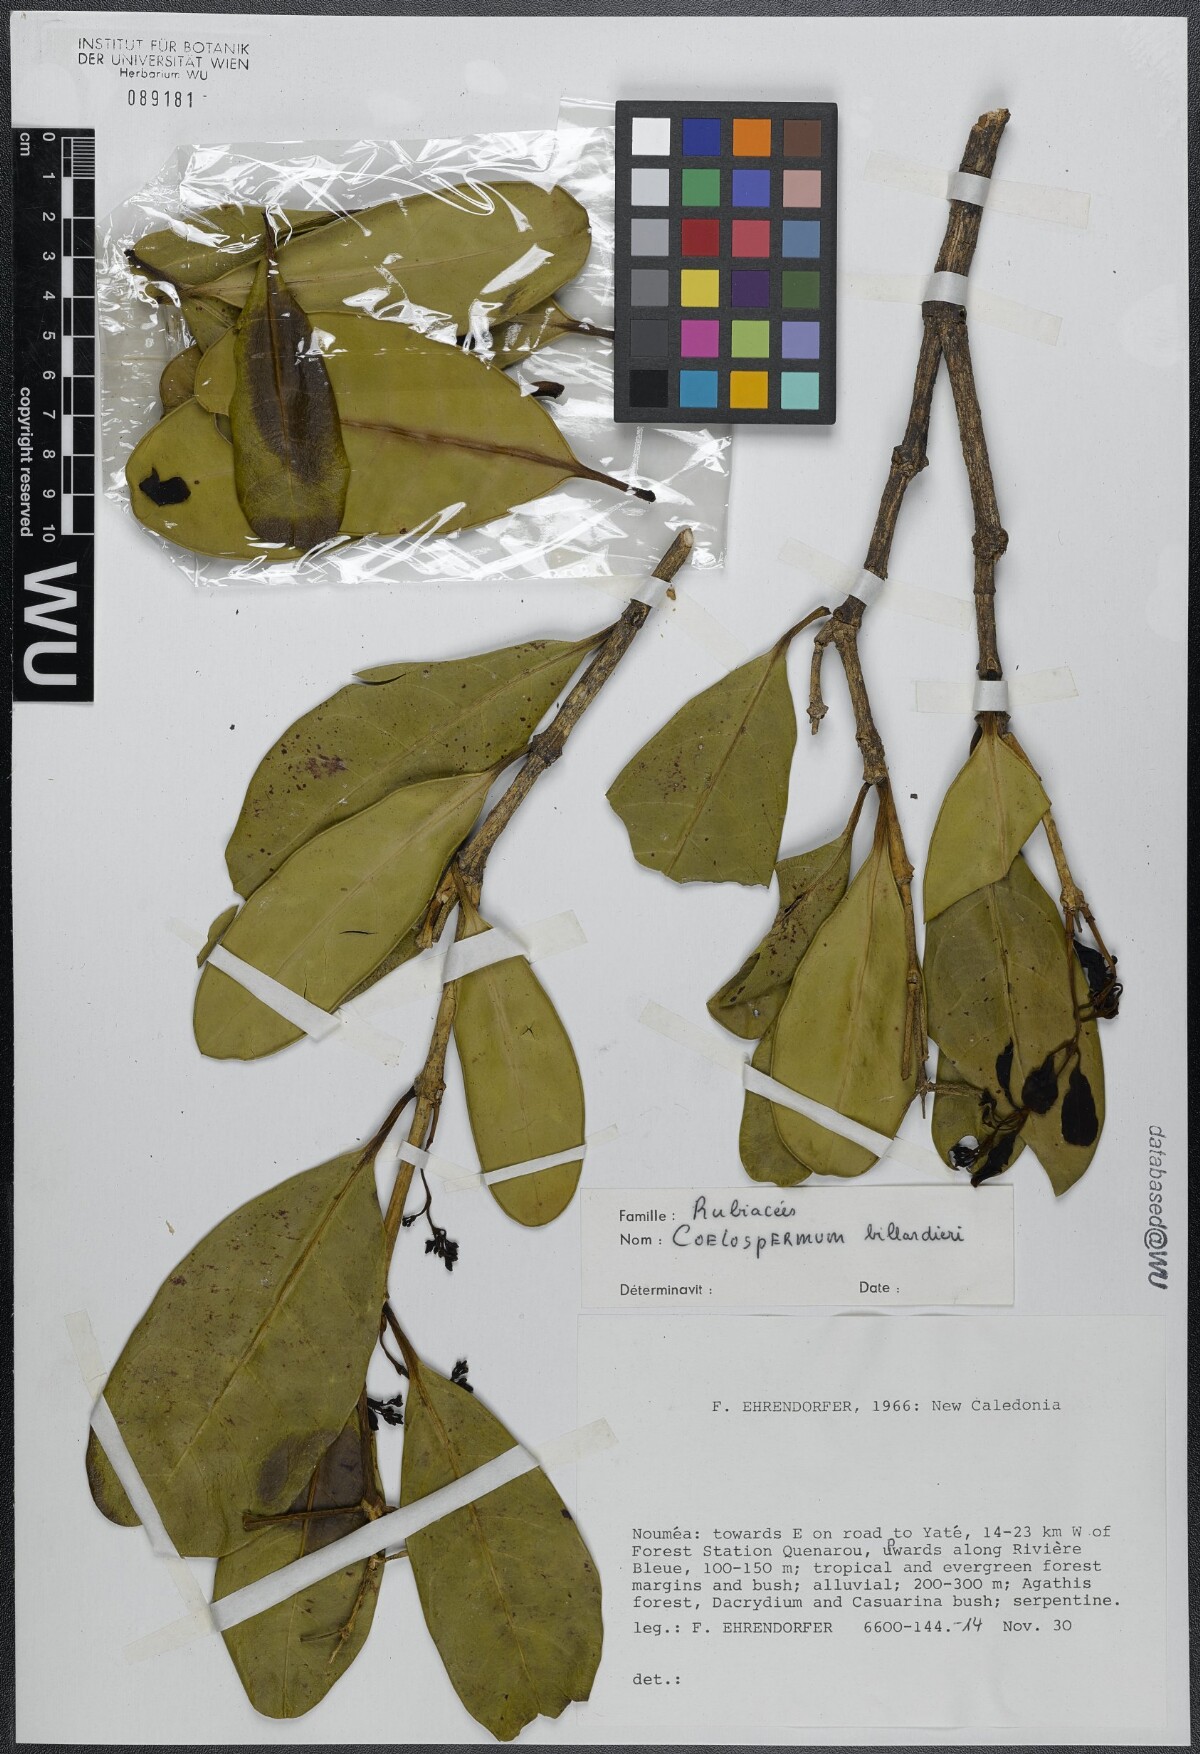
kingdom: Plantae
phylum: Tracheophyta
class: Magnoliopsida
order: Gentianales
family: Rubiaceae
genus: Coelospermum
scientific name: Coelospermum balansanum
